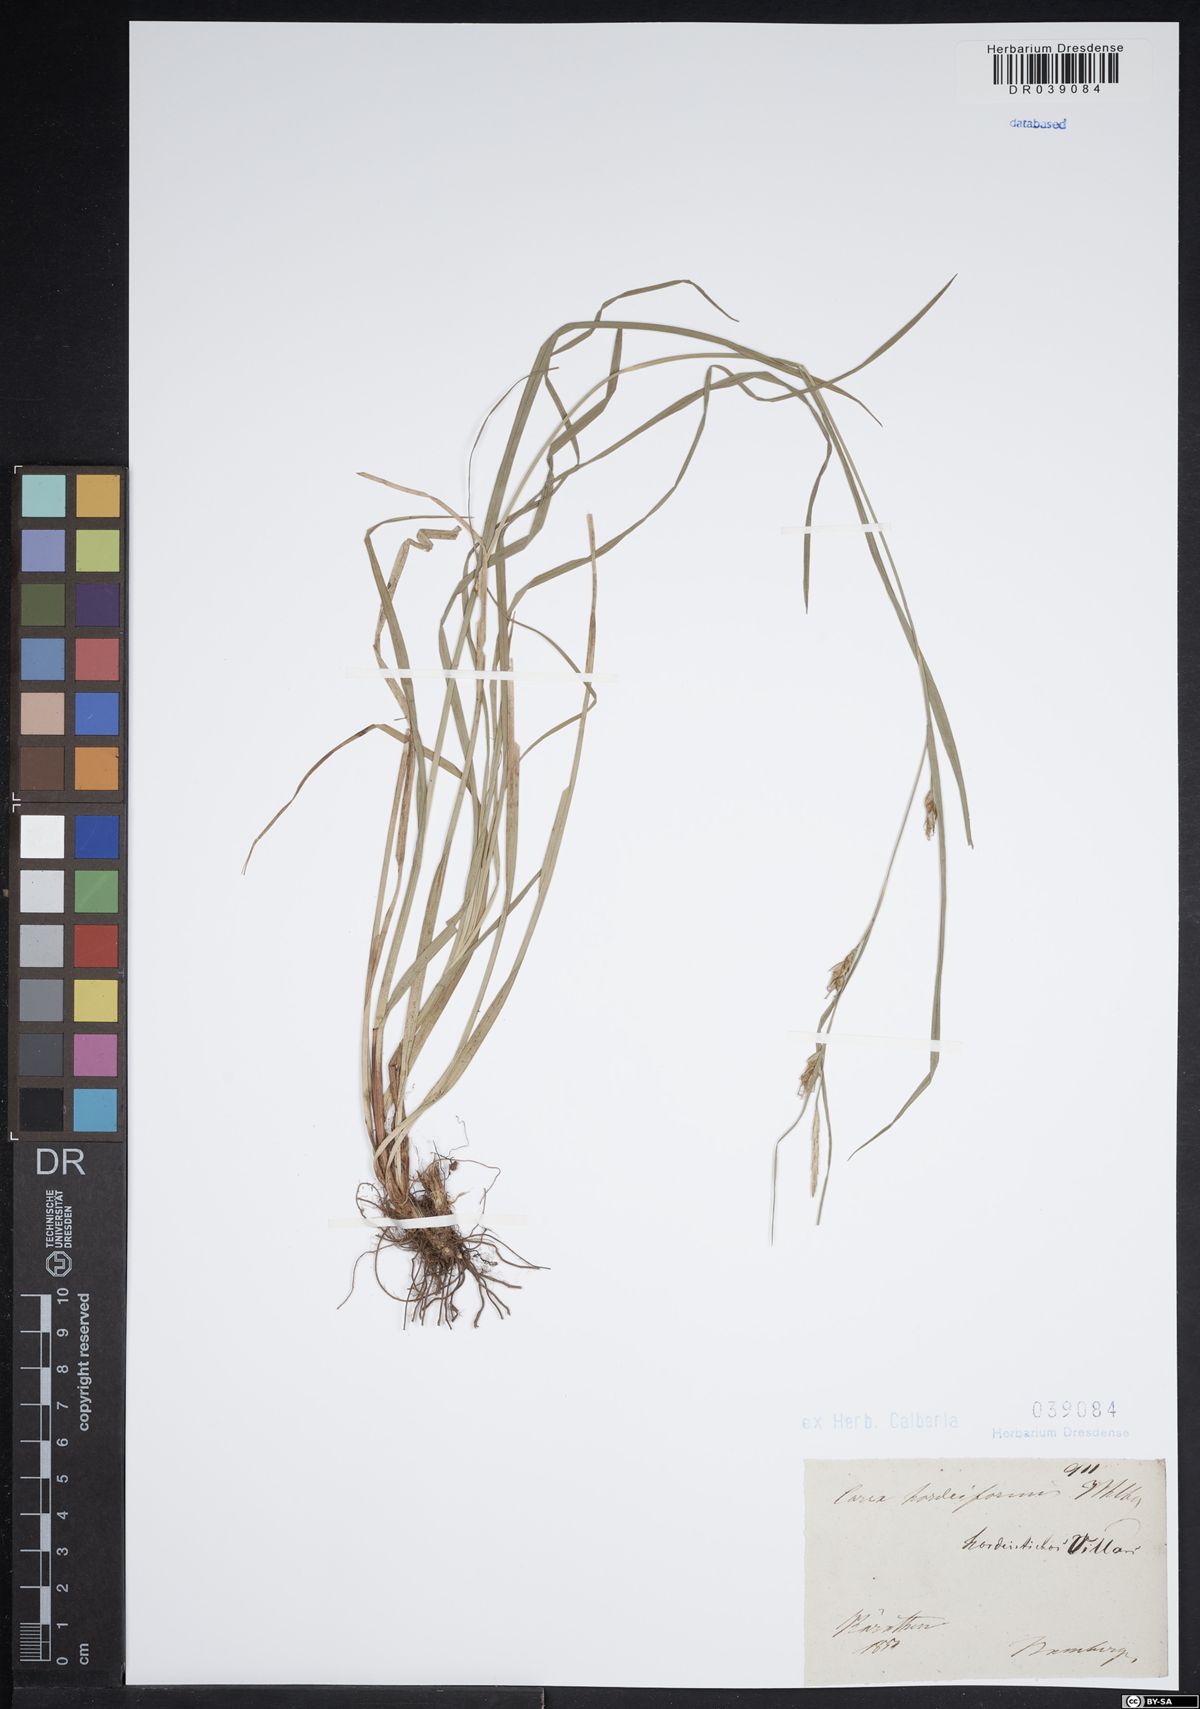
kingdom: Plantae
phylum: Tracheophyta
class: Liliopsida
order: Poales
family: Cyperaceae
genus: Carex
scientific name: Carex hordeistichos
